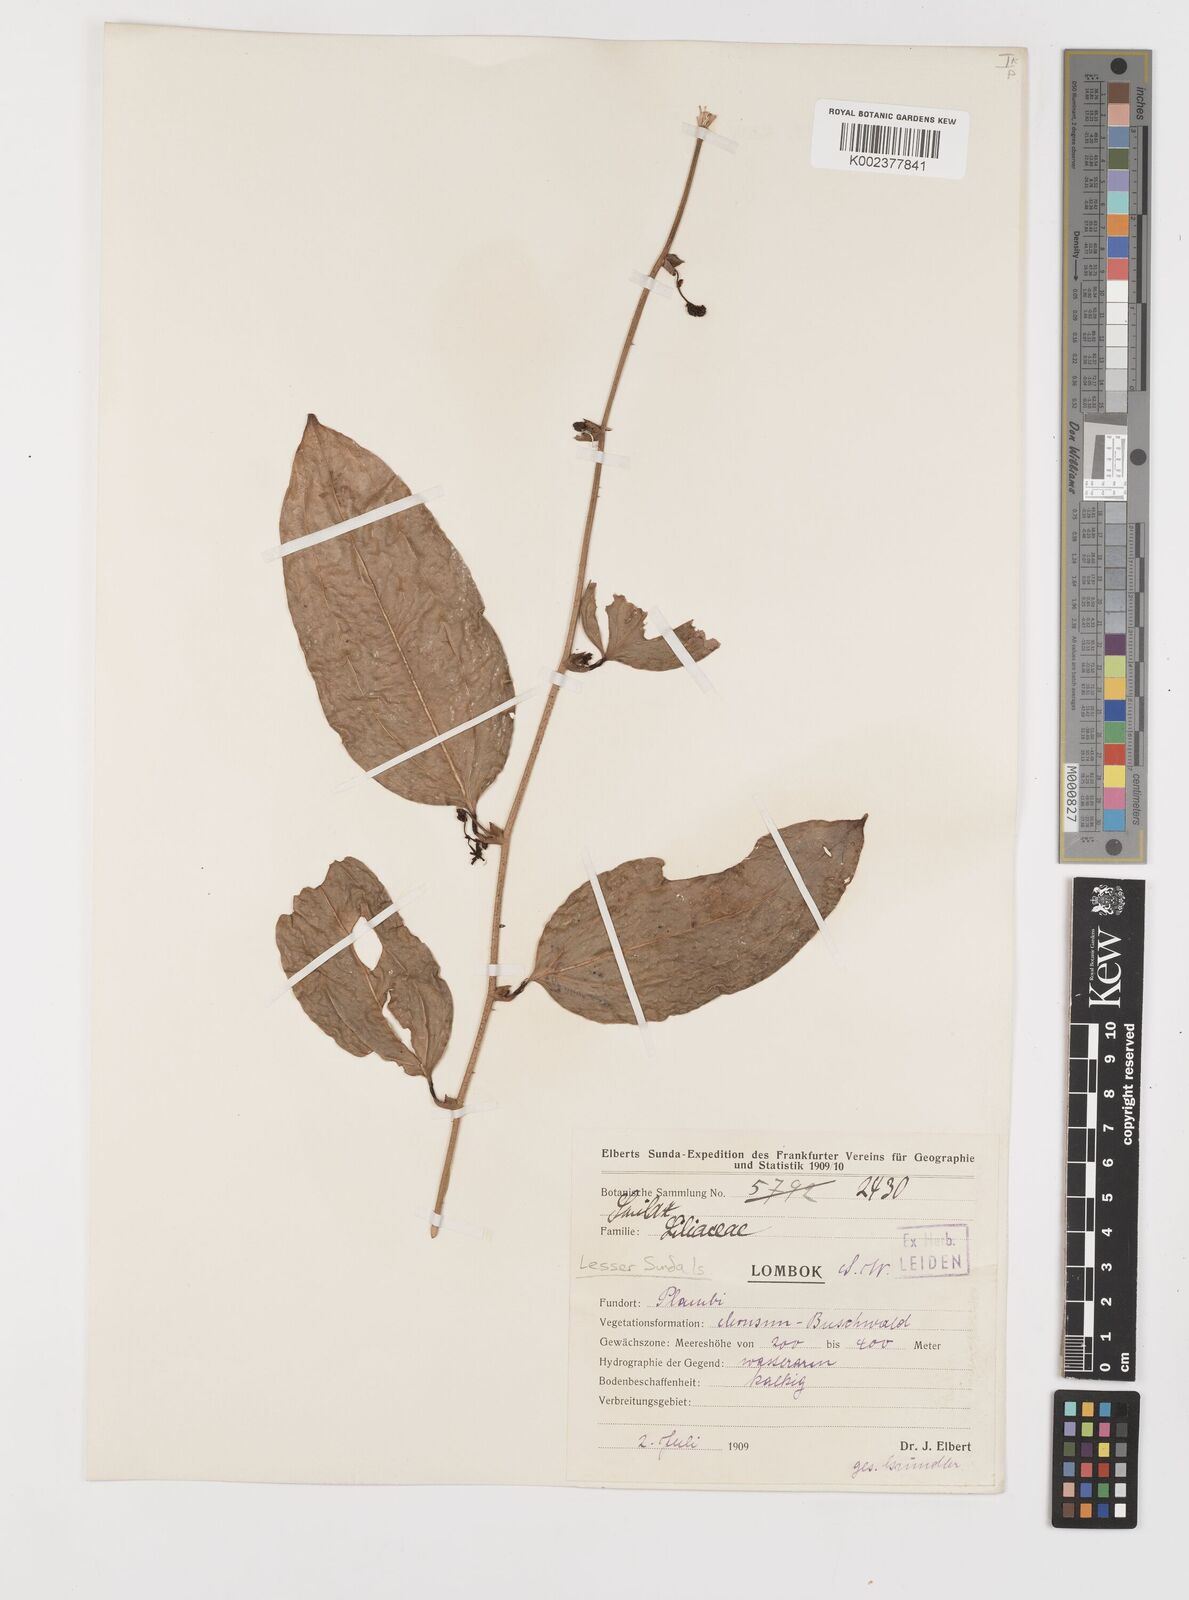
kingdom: Plantae
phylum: Tracheophyta
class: Liliopsida
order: Liliales
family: Smilacaceae
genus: Smilax
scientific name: Smilax
